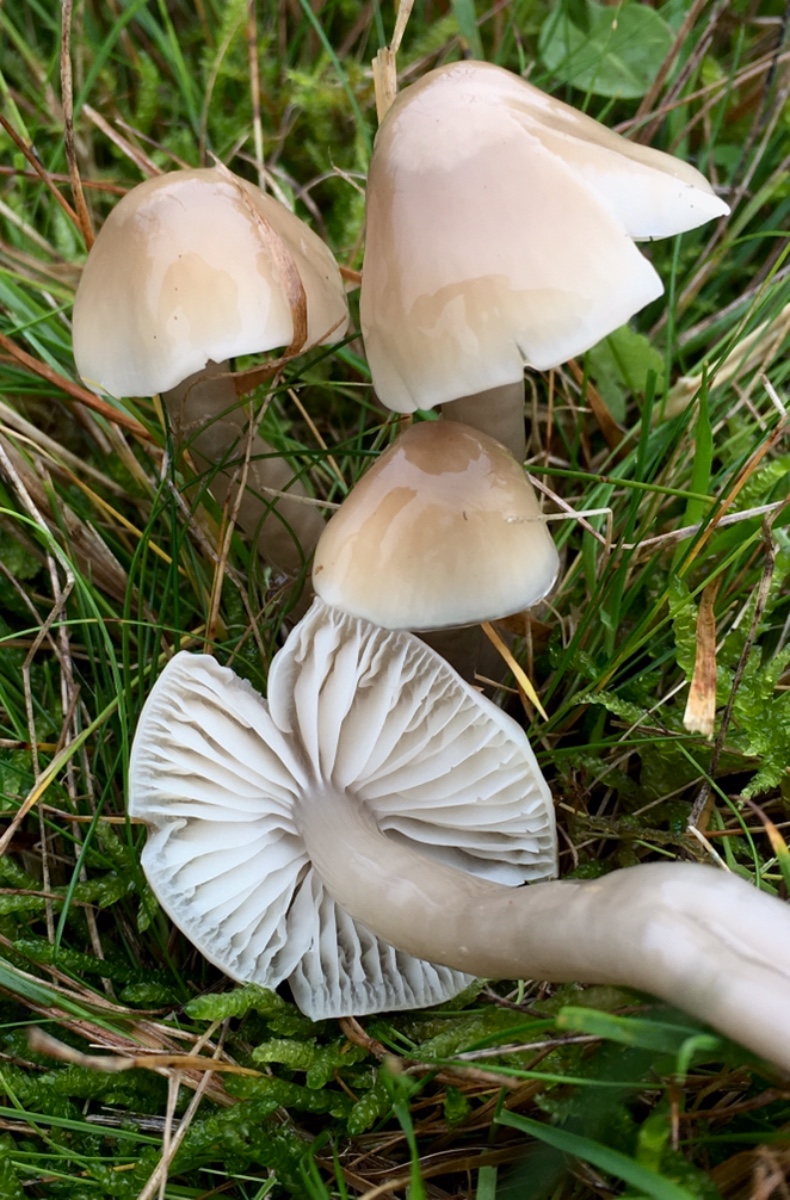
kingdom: Fungi
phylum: Basidiomycota
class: Agaricomycetes
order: Agaricales
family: Hygrophoraceae
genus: Gliophorus
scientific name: Gliophorus irrigatus
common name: slimet vokshat
